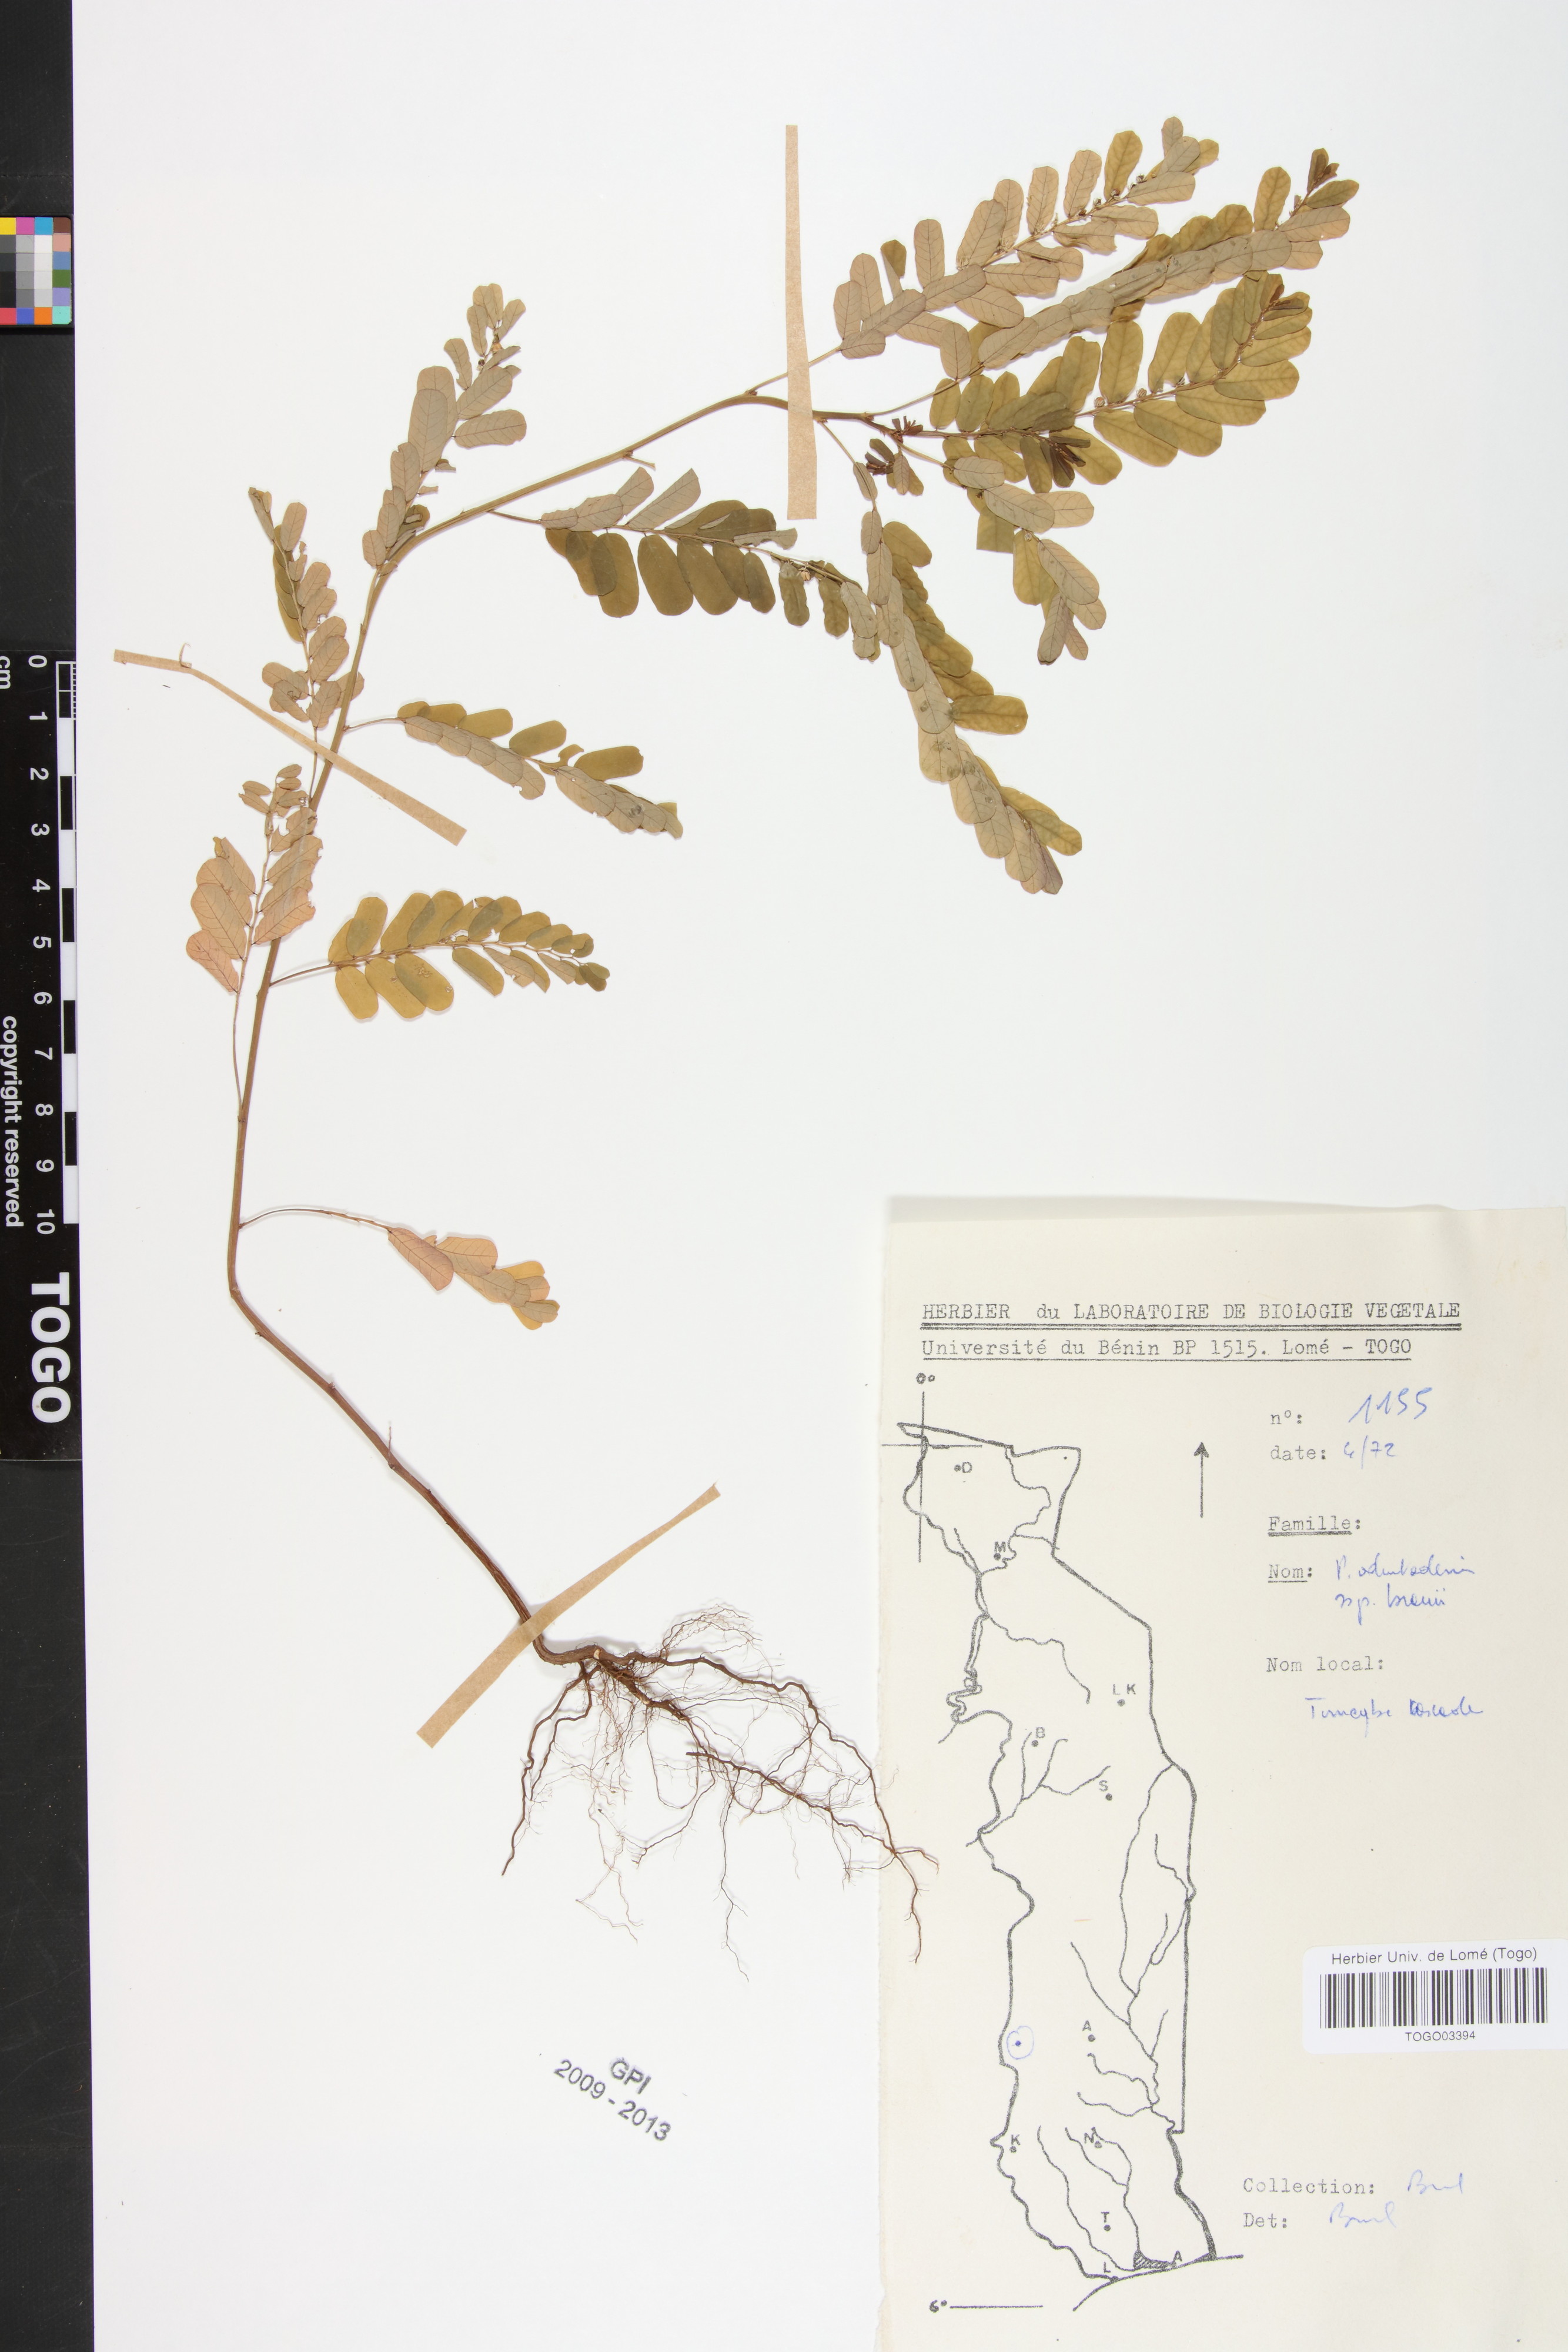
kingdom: Plantae
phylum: Tracheophyta
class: Magnoliopsida
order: Malpighiales
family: Phyllanthaceae
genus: Phyllanthus
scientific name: Phyllanthus odontadenius
